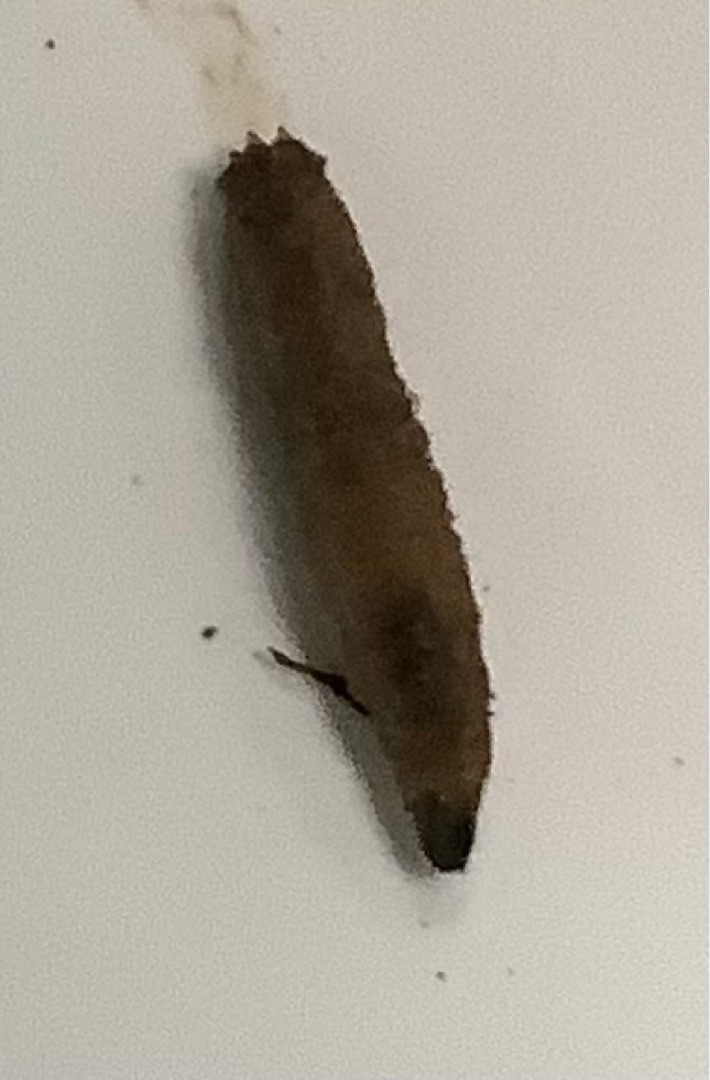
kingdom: Animalia
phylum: Arthropoda
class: Insecta
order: Diptera
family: Tipulidae
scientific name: Tipulidae
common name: Stankelben
